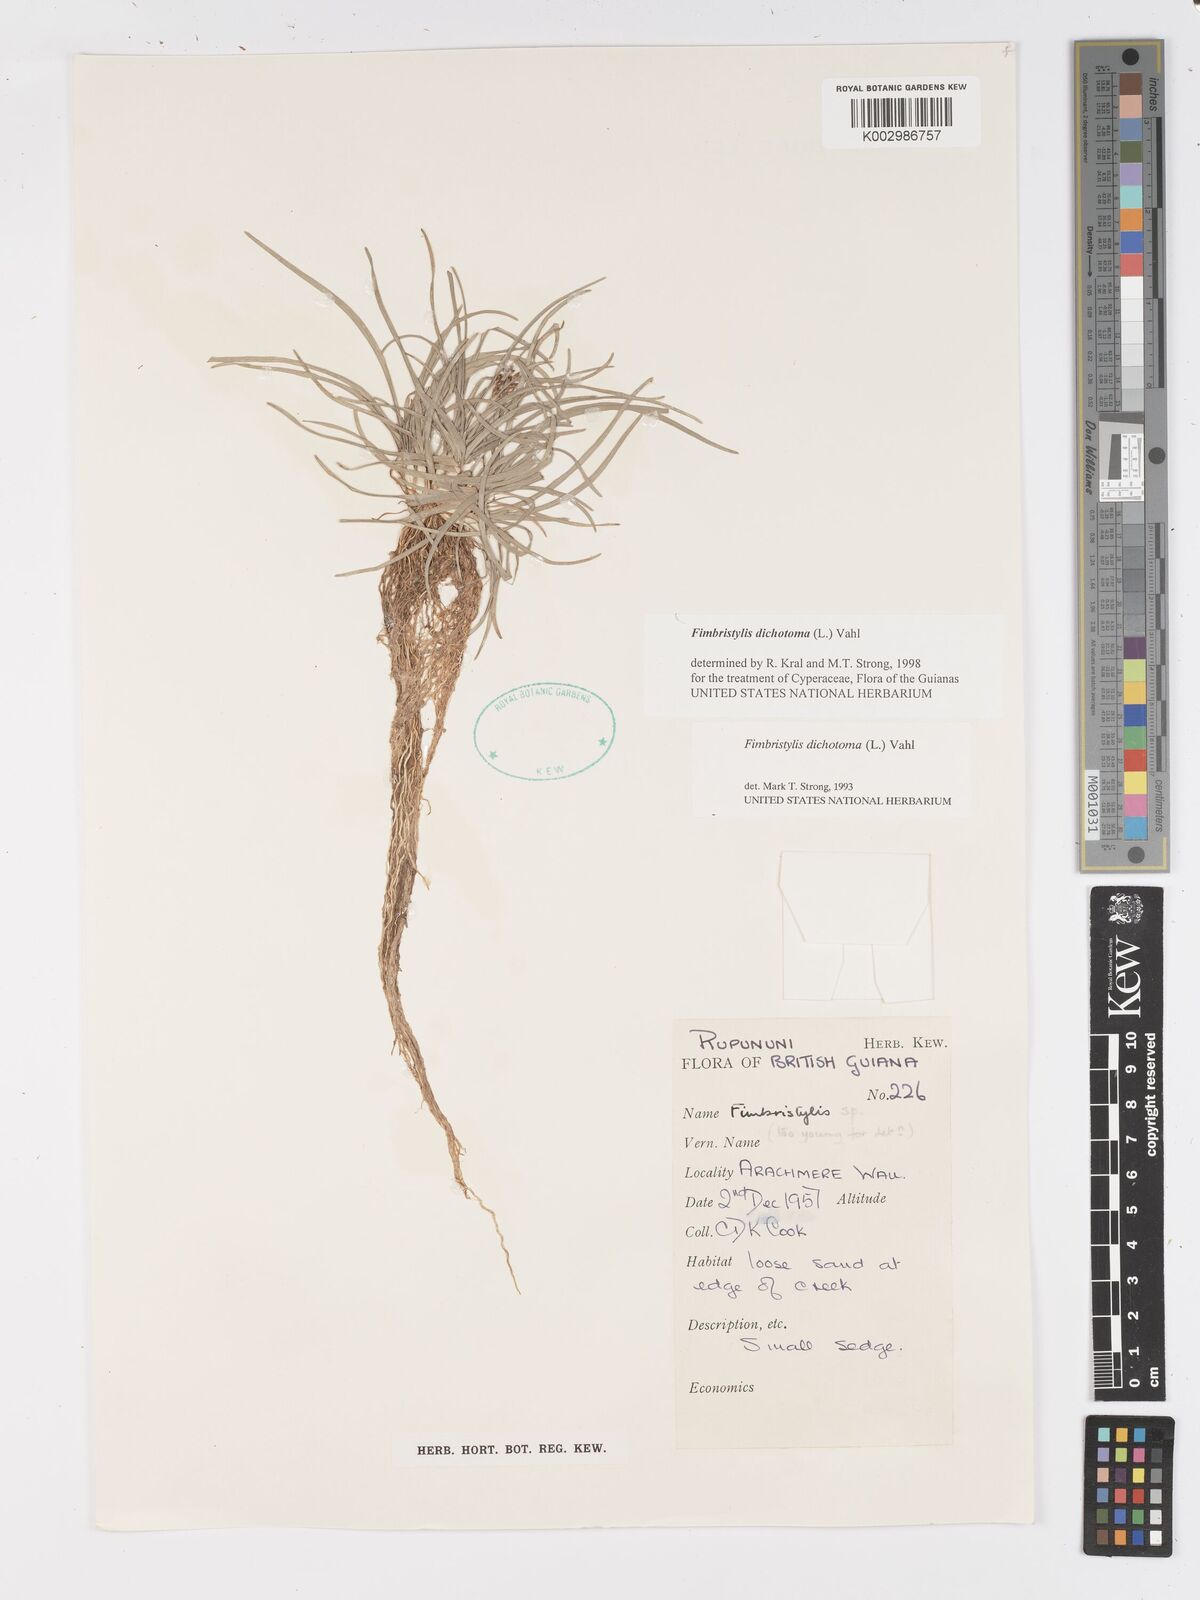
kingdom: Plantae
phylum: Tracheophyta
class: Liliopsida
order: Poales
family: Cyperaceae
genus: Fimbristylis
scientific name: Fimbristylis dichotoma
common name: Forked fimbry
